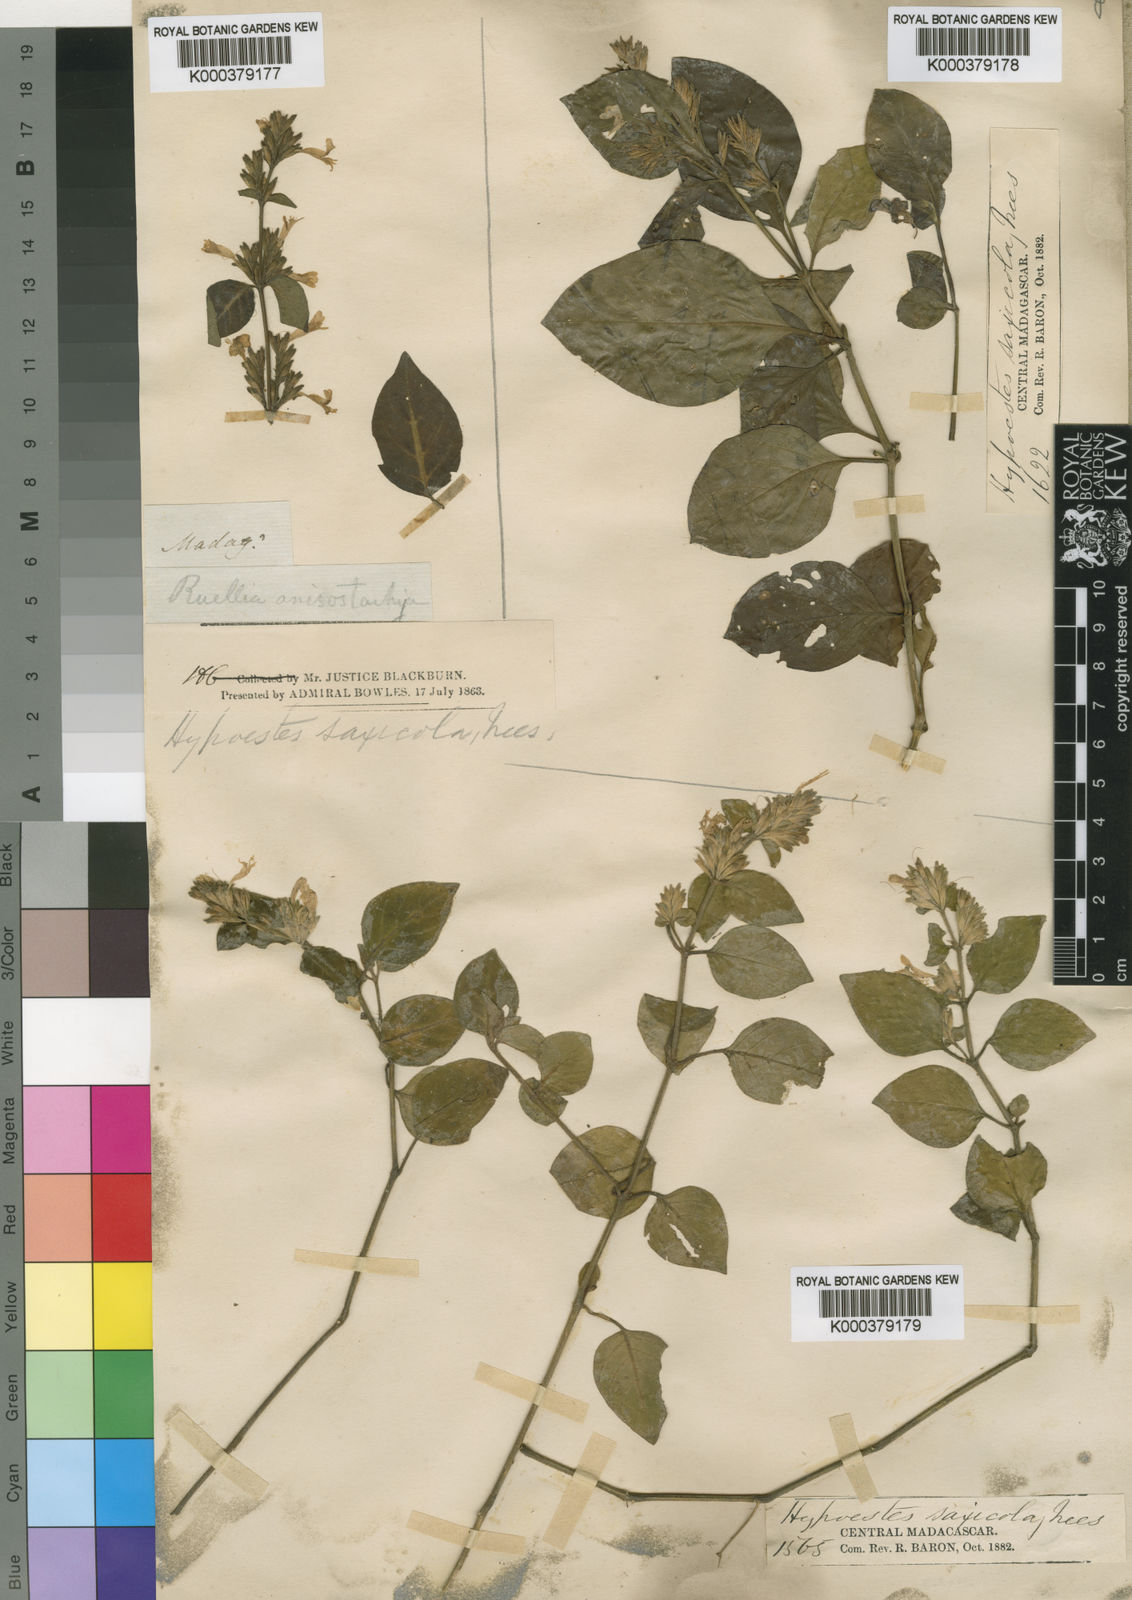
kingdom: Plantae
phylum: Tracheophyta
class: Magnoliopsida
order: Lamiales
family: Acanthaceae
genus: Hypoestes
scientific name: Hypoestes saxicola
